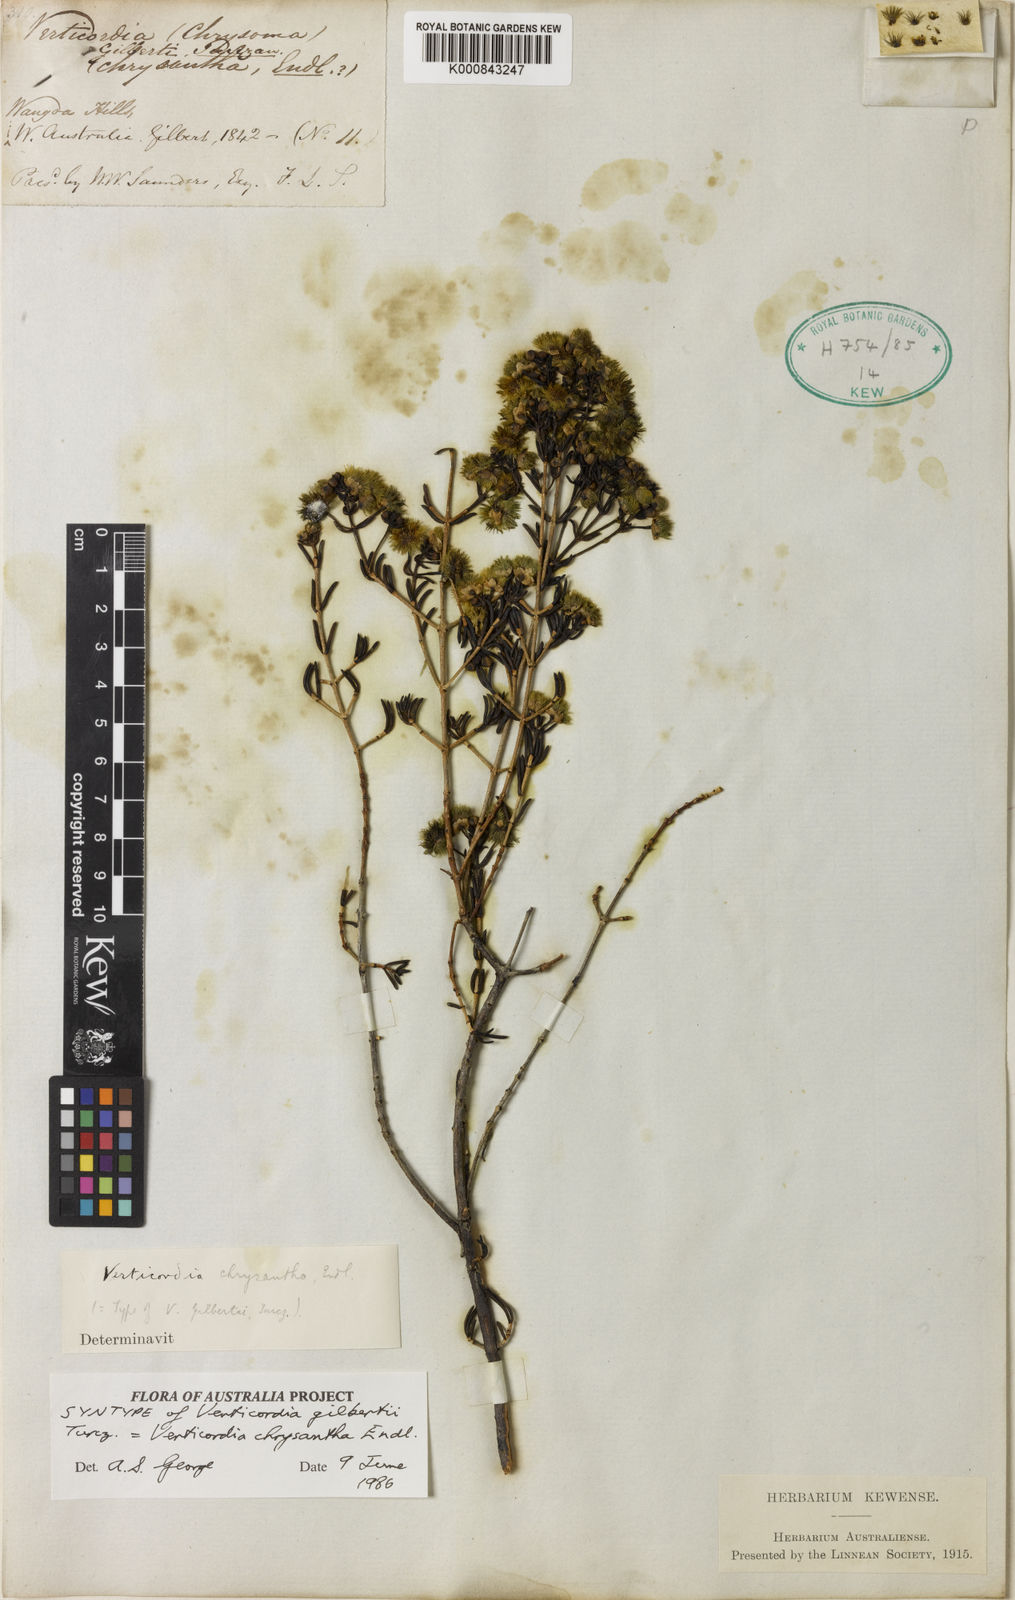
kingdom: Plantae
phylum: Tracheophyta
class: Magnoliopsida
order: Myrtales
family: Myrtaceae
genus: Verticordia
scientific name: Verticordia chrysantha
